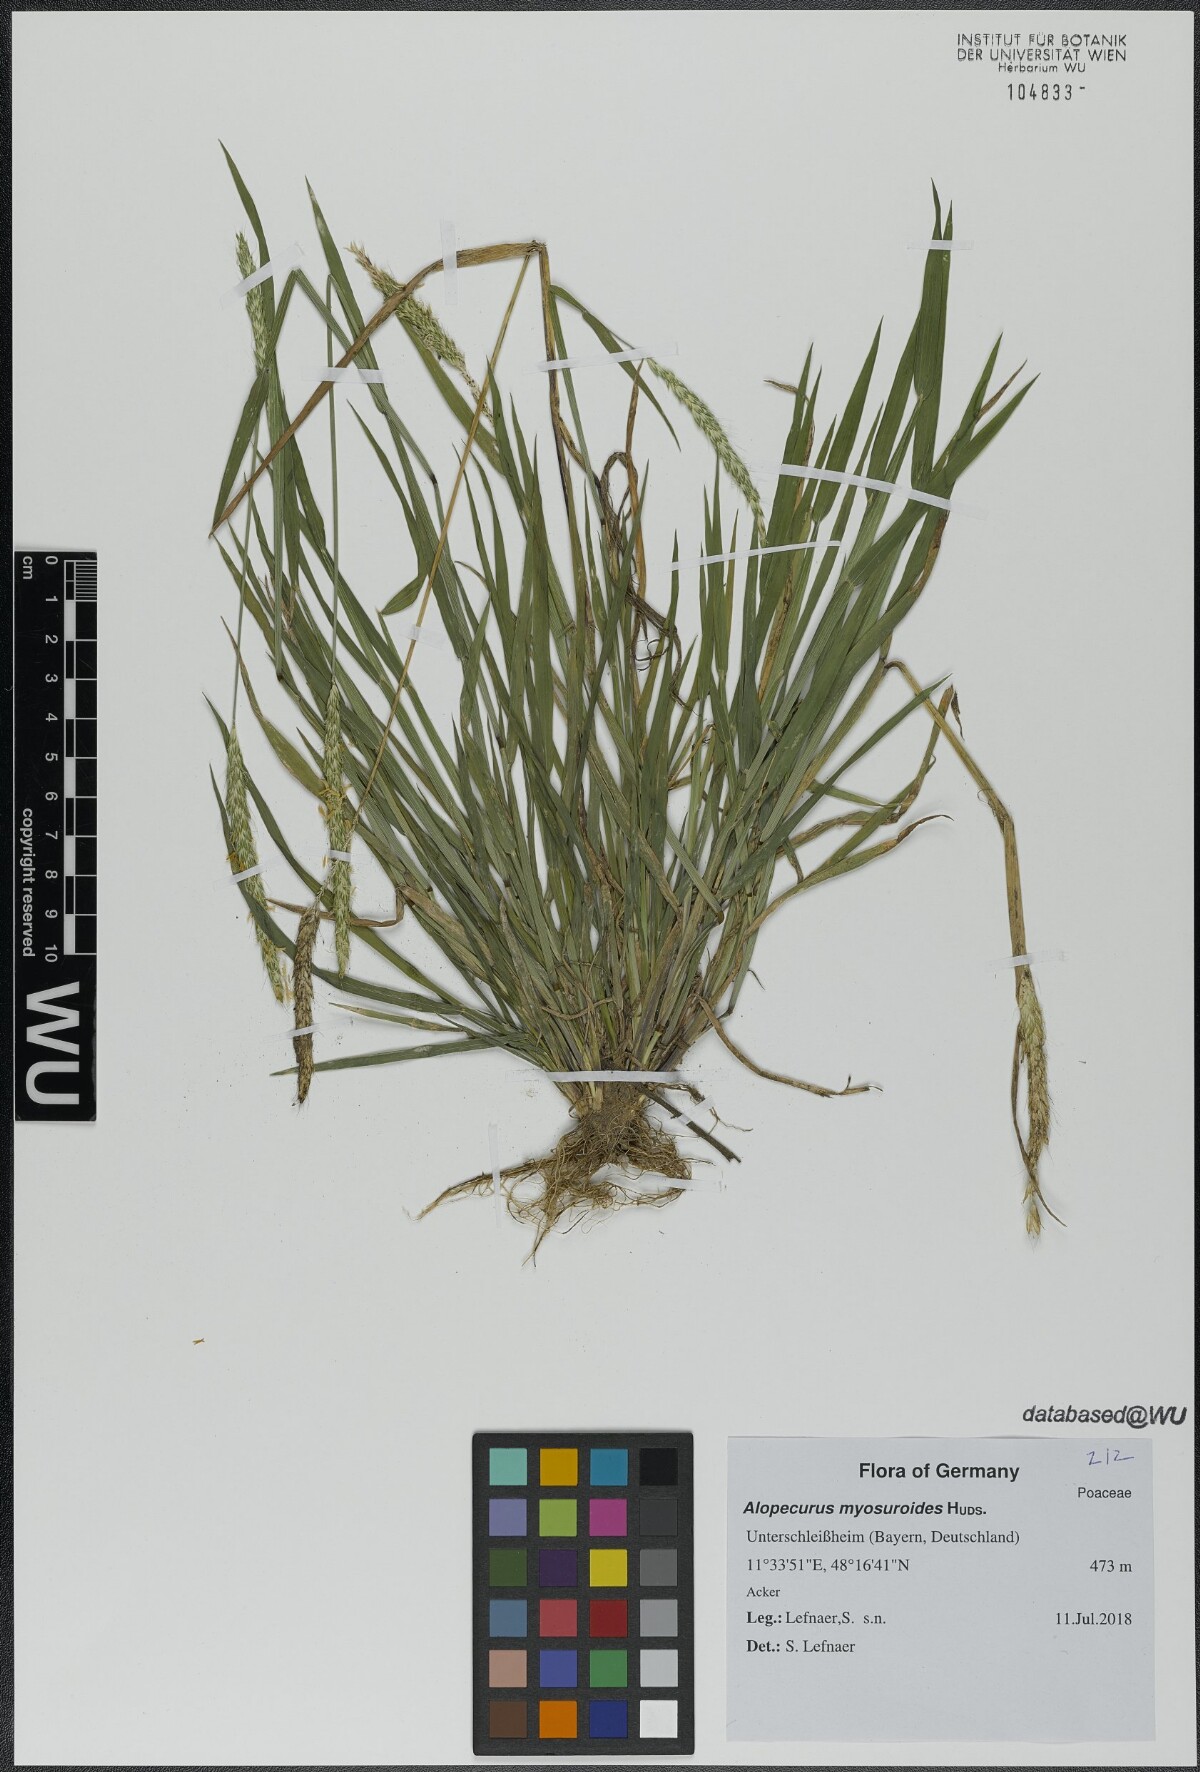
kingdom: Plantae
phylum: Tracheophyta
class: Liliopsida
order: Poales
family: Poaceae
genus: Alopecurus
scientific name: Alopecurus myosuroides
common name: Black-grass
